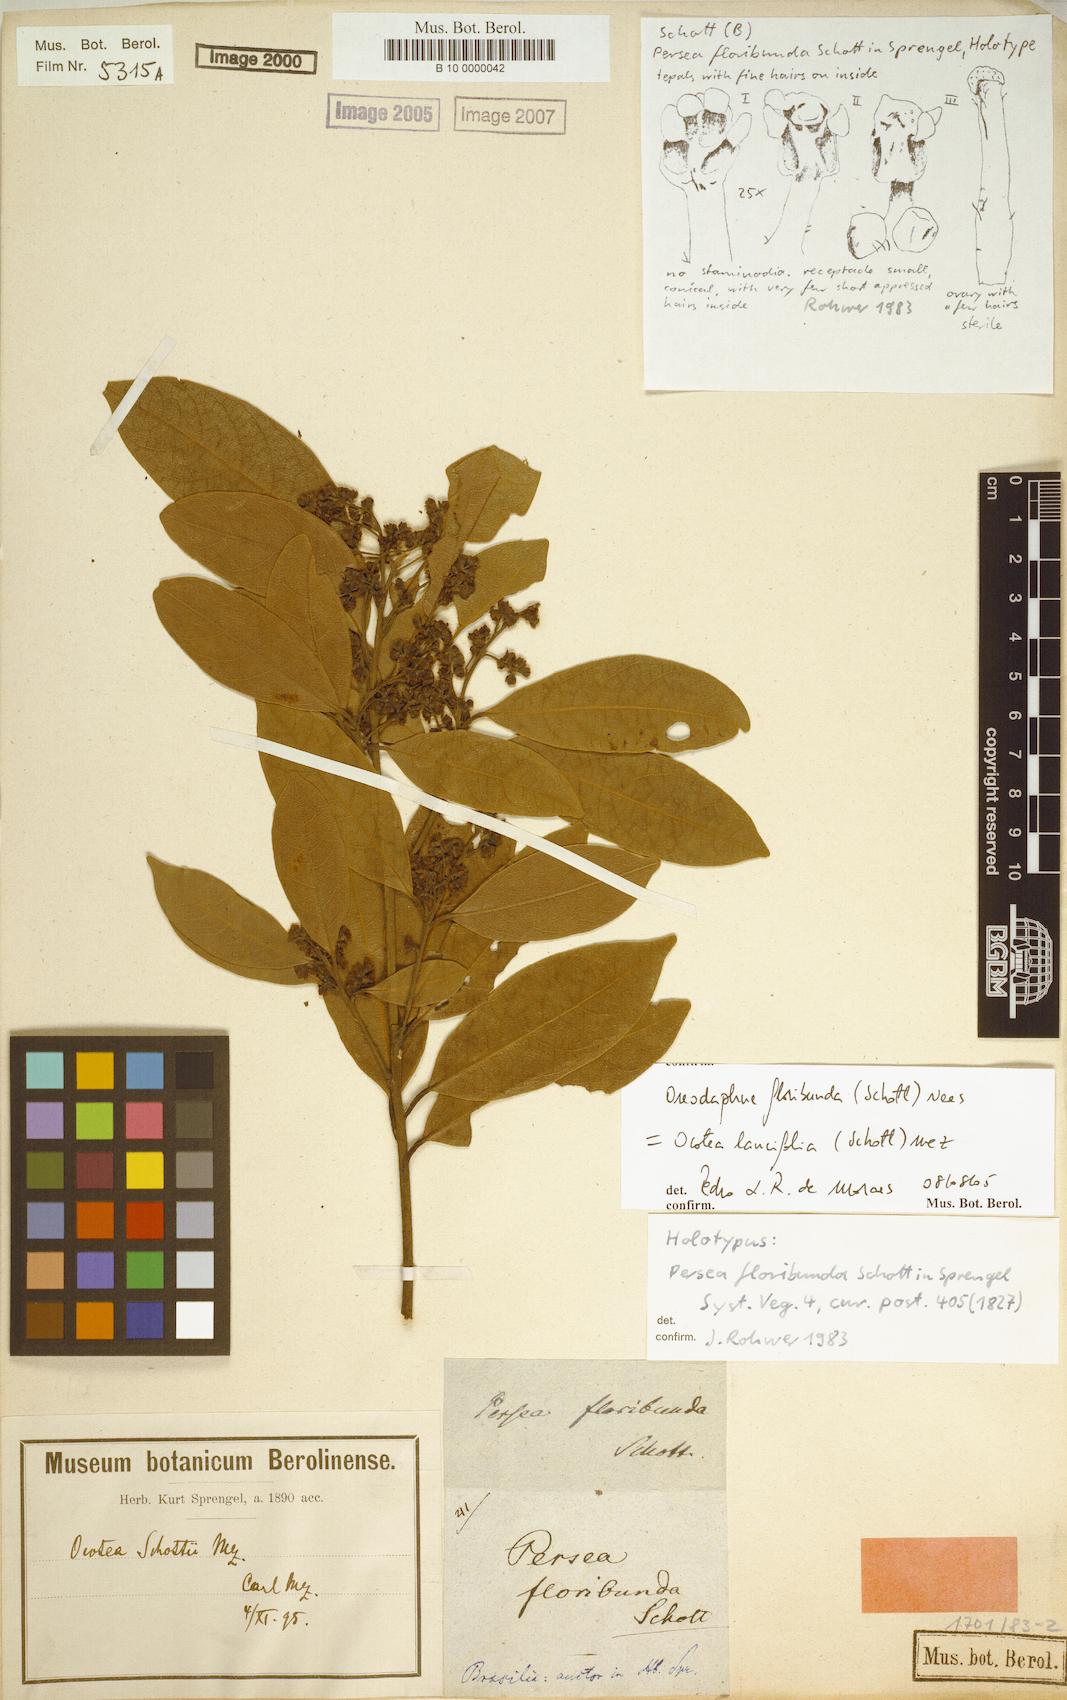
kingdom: Plantae
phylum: Tracheophyta
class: Magnoliopsida
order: Laurales
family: Lauraceae
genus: Ocotea
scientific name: Ocotea lancifolia
